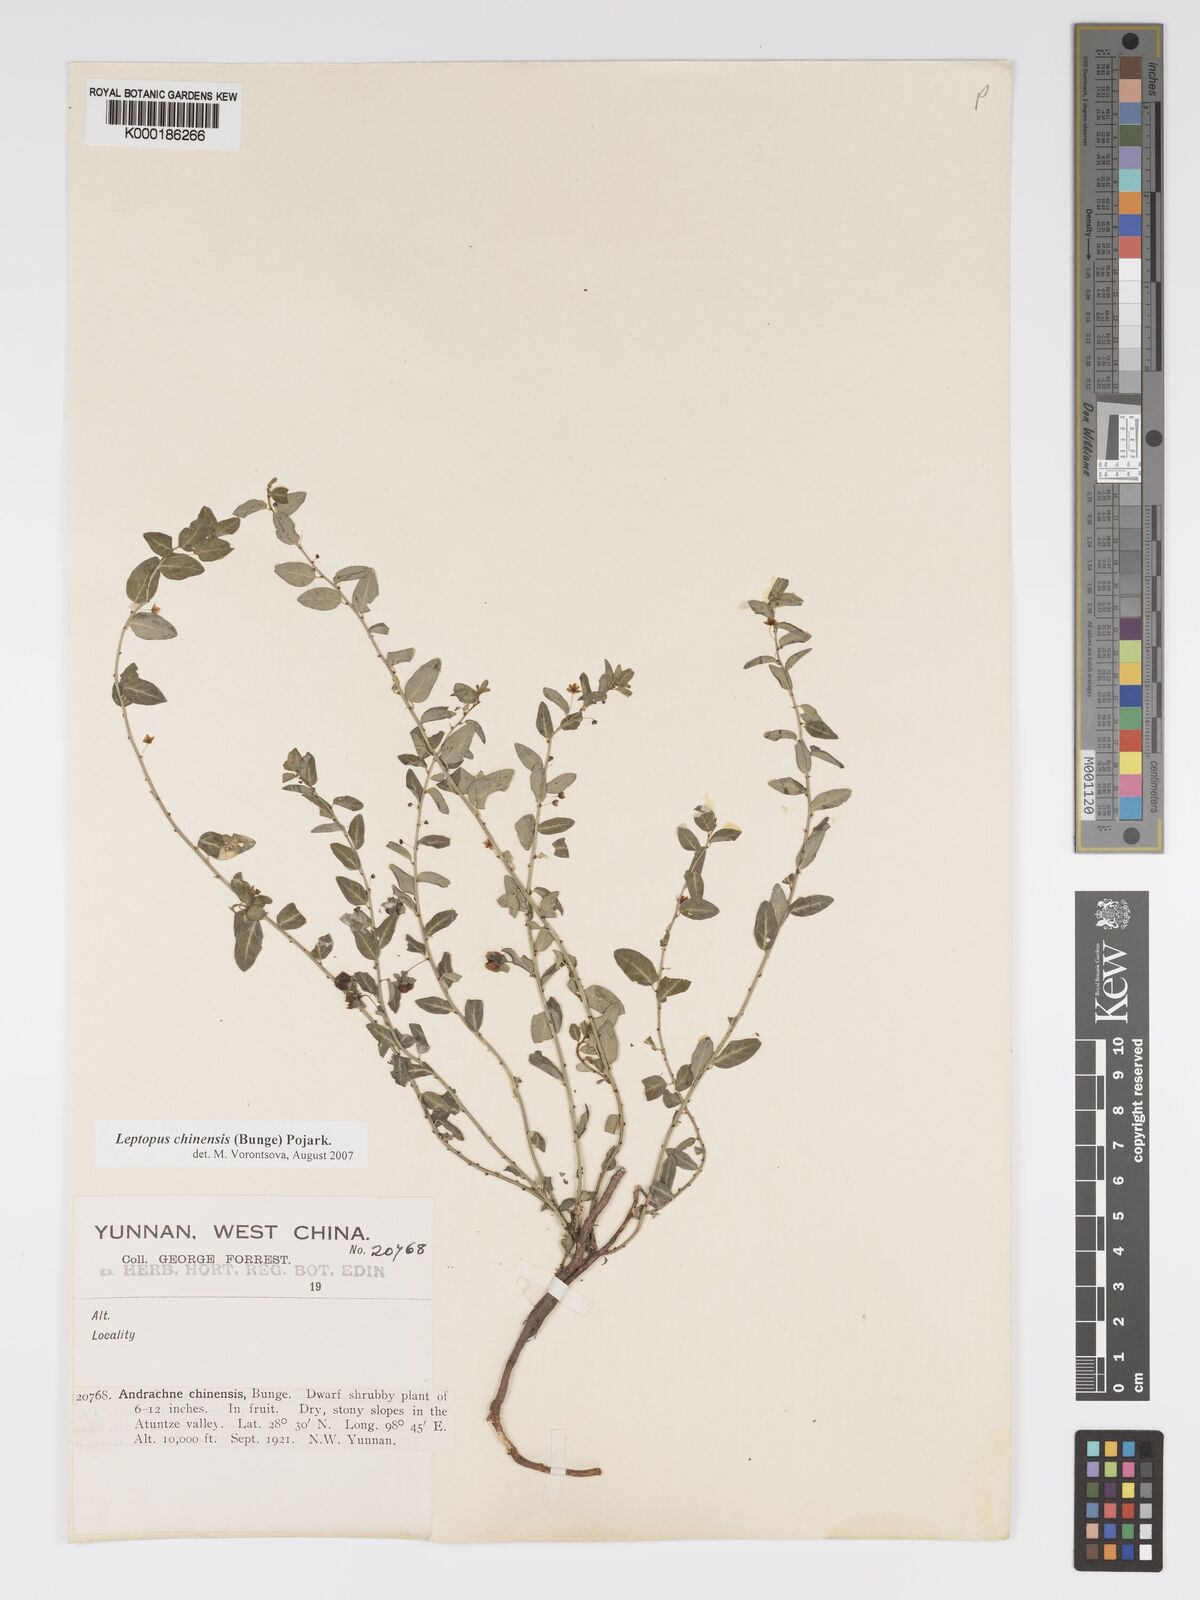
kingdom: Plantae
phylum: Tracheophyta
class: Magnoliopsida
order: Malpighiales
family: Phyllanthaceae
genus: Leptopus
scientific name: Leptopus chinensis
